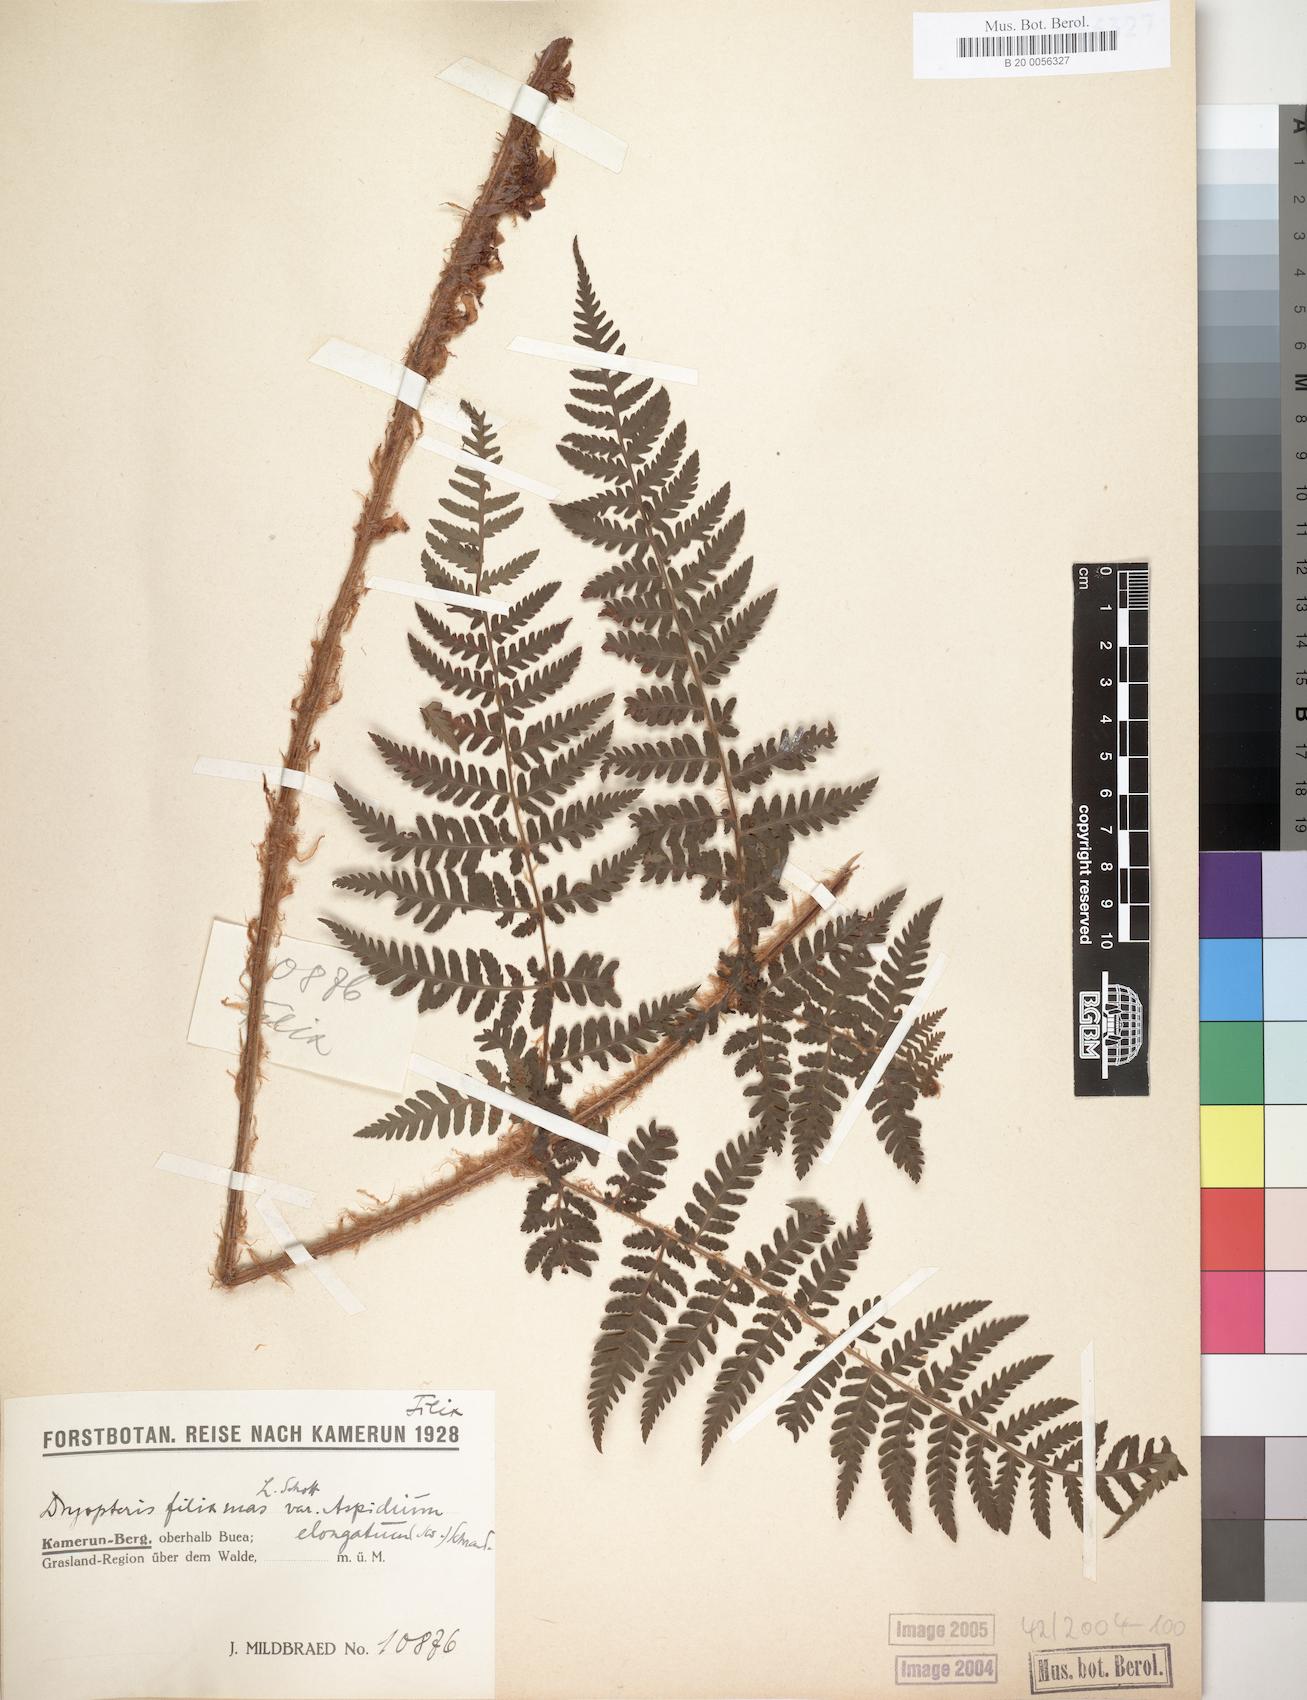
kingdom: Plantae
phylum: Tracheophyta
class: Polypodiopsida
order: Polypodiales
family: Dryopteridaceae
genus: Dryopteris
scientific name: Dryopteris filix-mas
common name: Male fern
